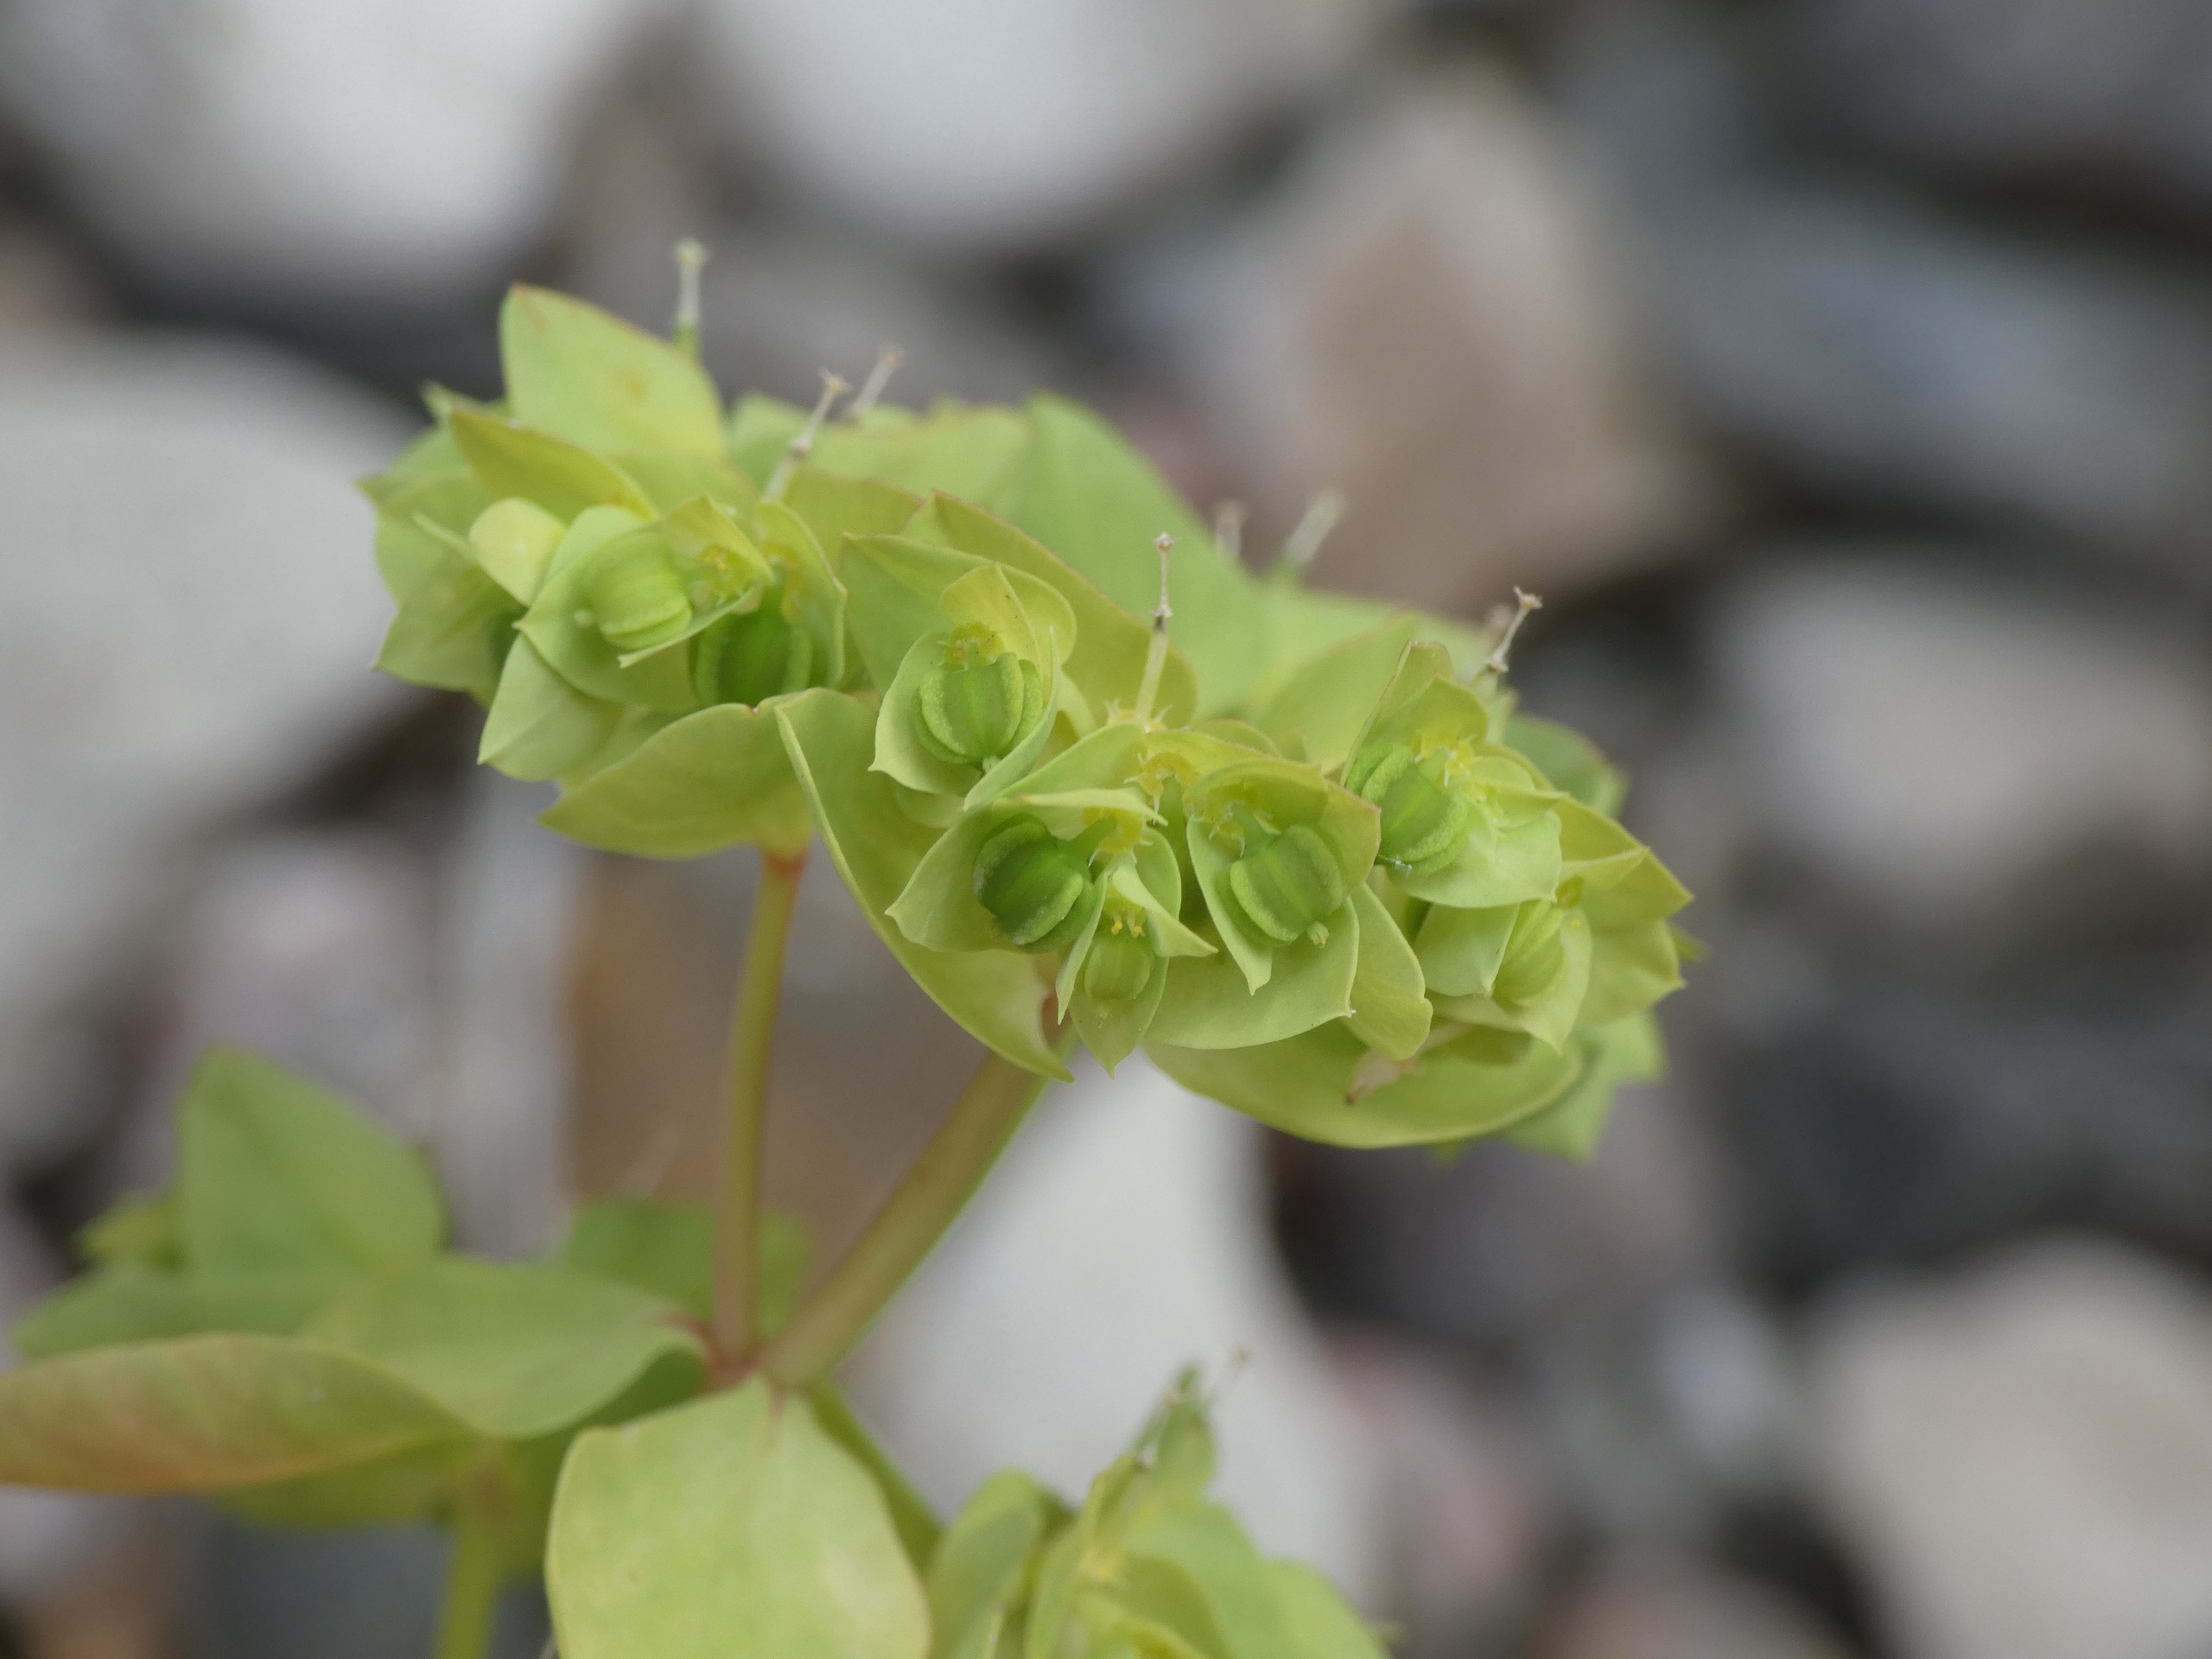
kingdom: Plantae
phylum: Tracheophyta
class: Magnoliopsida
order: Malpighiales
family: Euphorbiaceae
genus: Euphorbia
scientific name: Euphorbia peplus
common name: Gaffel-vortemælk
